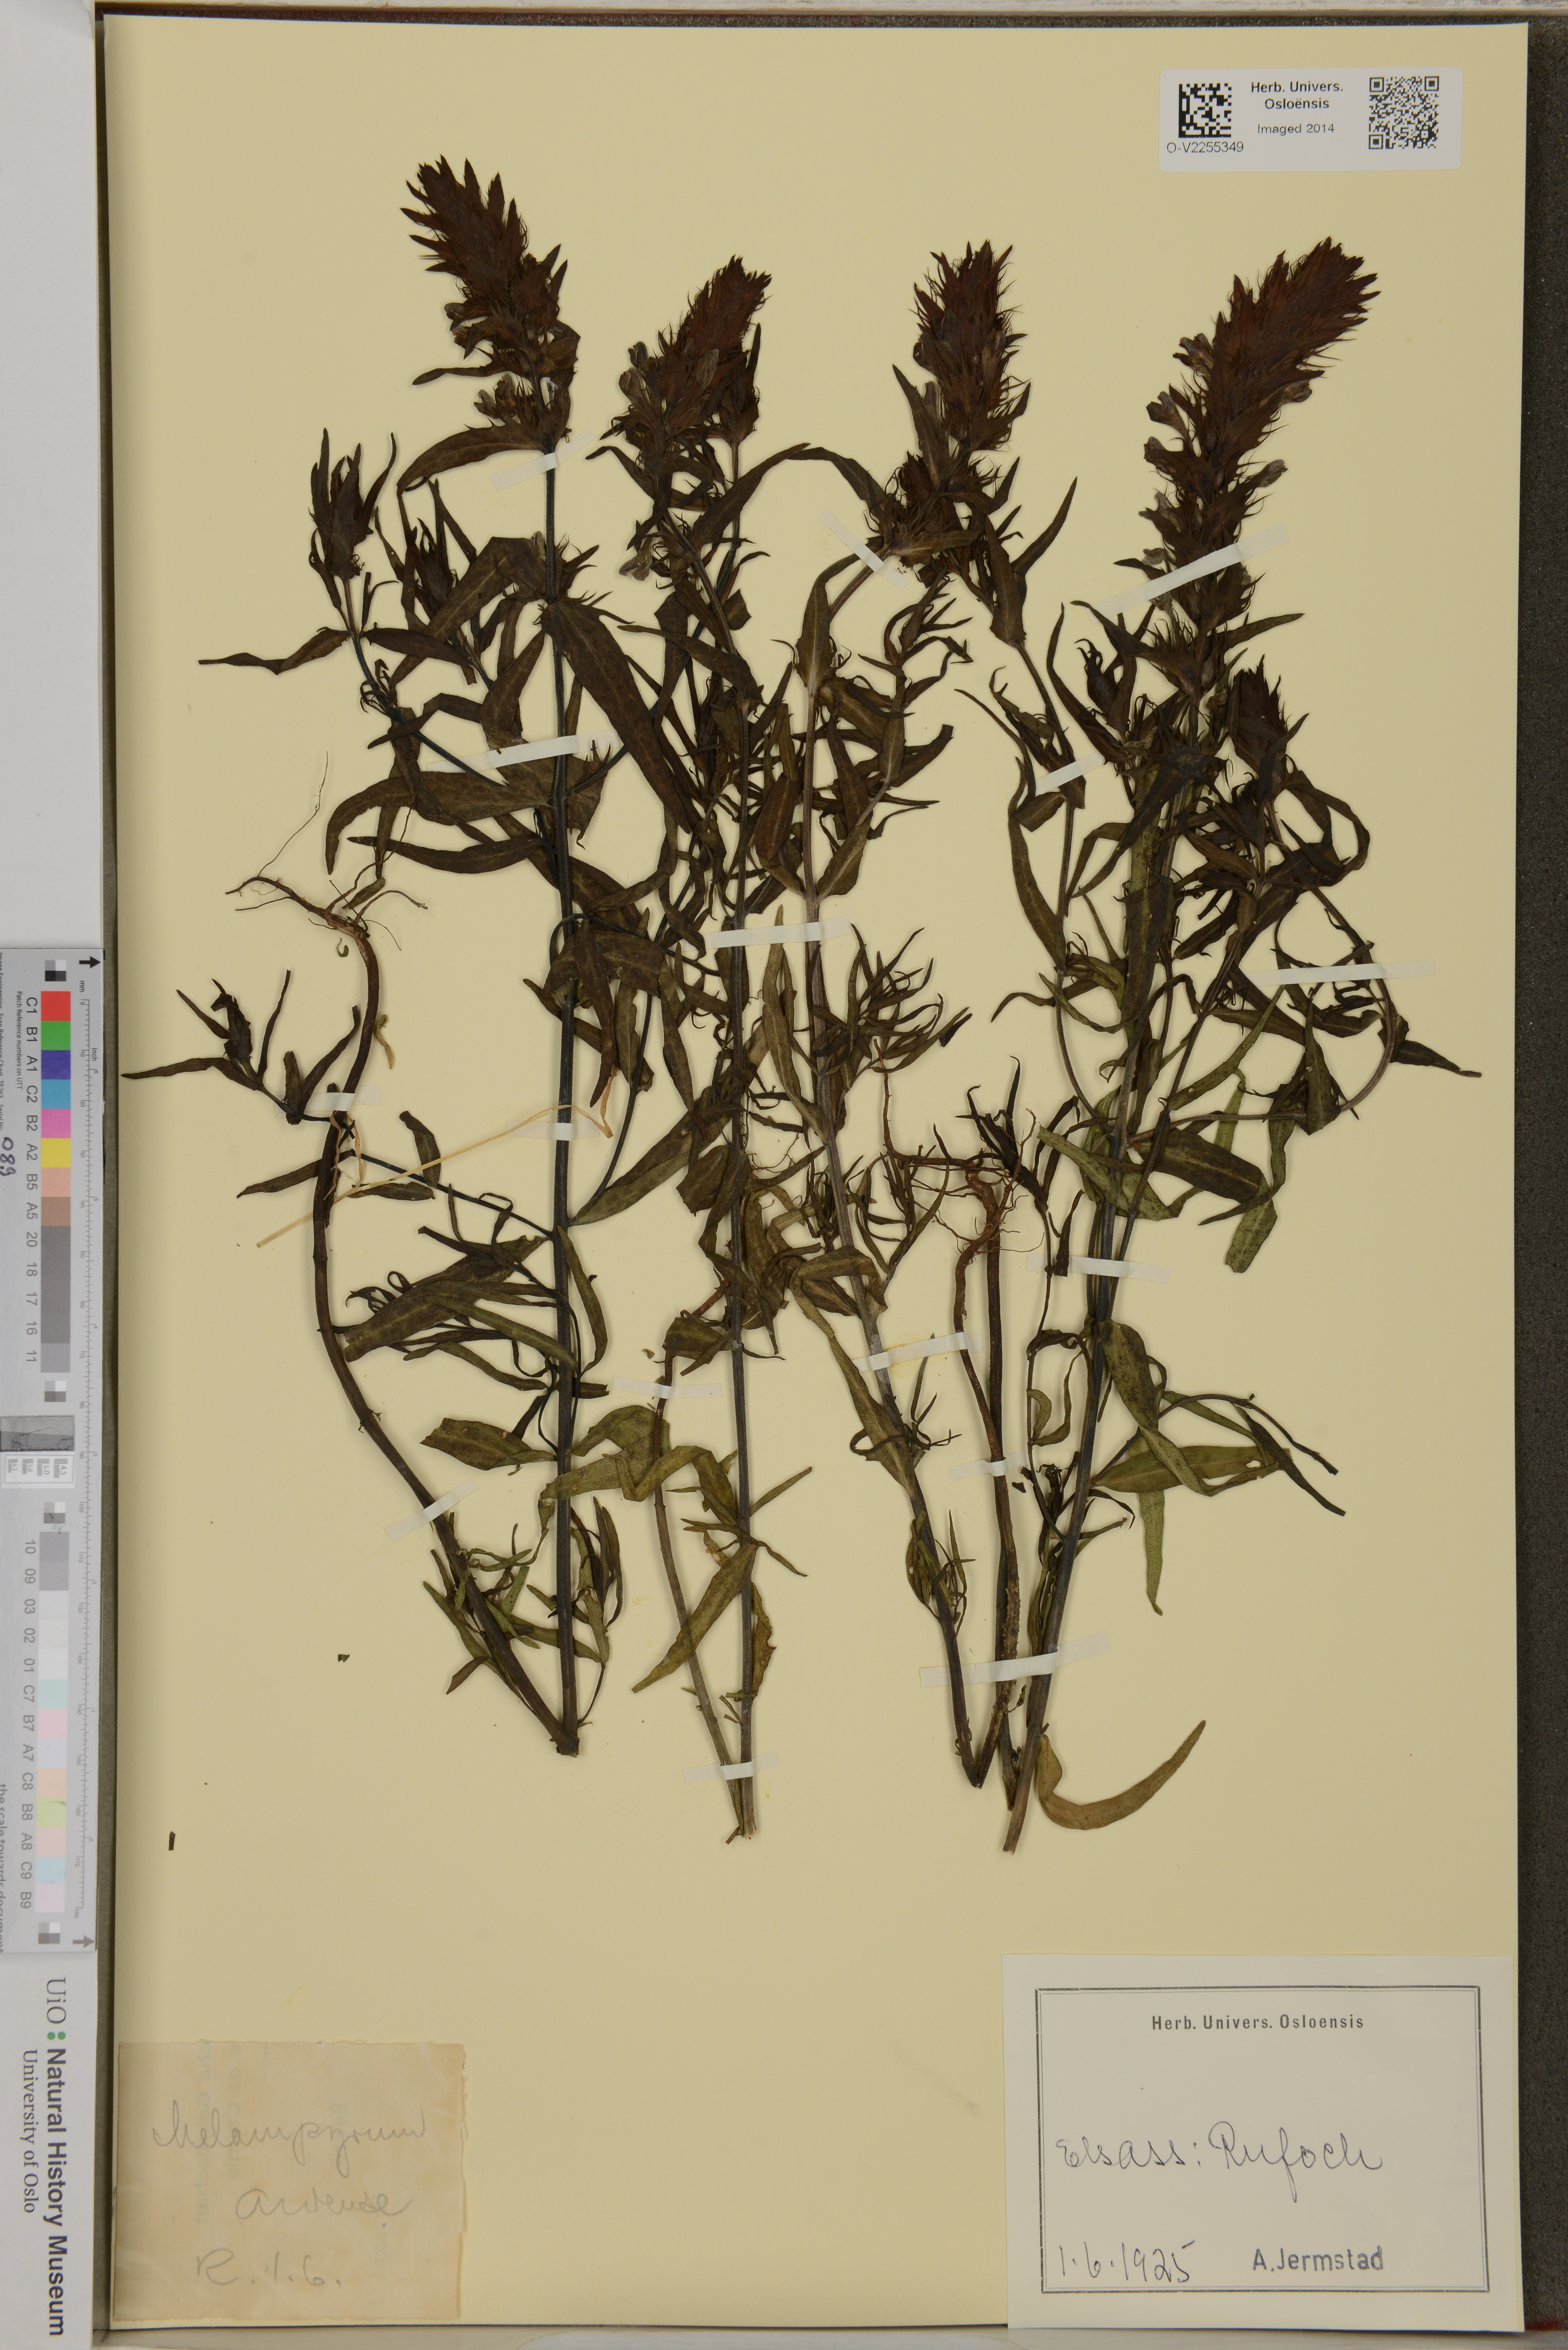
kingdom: Plantae
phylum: Tracheophyta
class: Magnoliopsida
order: Lamiales
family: Orobanchaceae
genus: Melampyrum
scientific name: Melampyrum arvense
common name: Field cow-wheat
